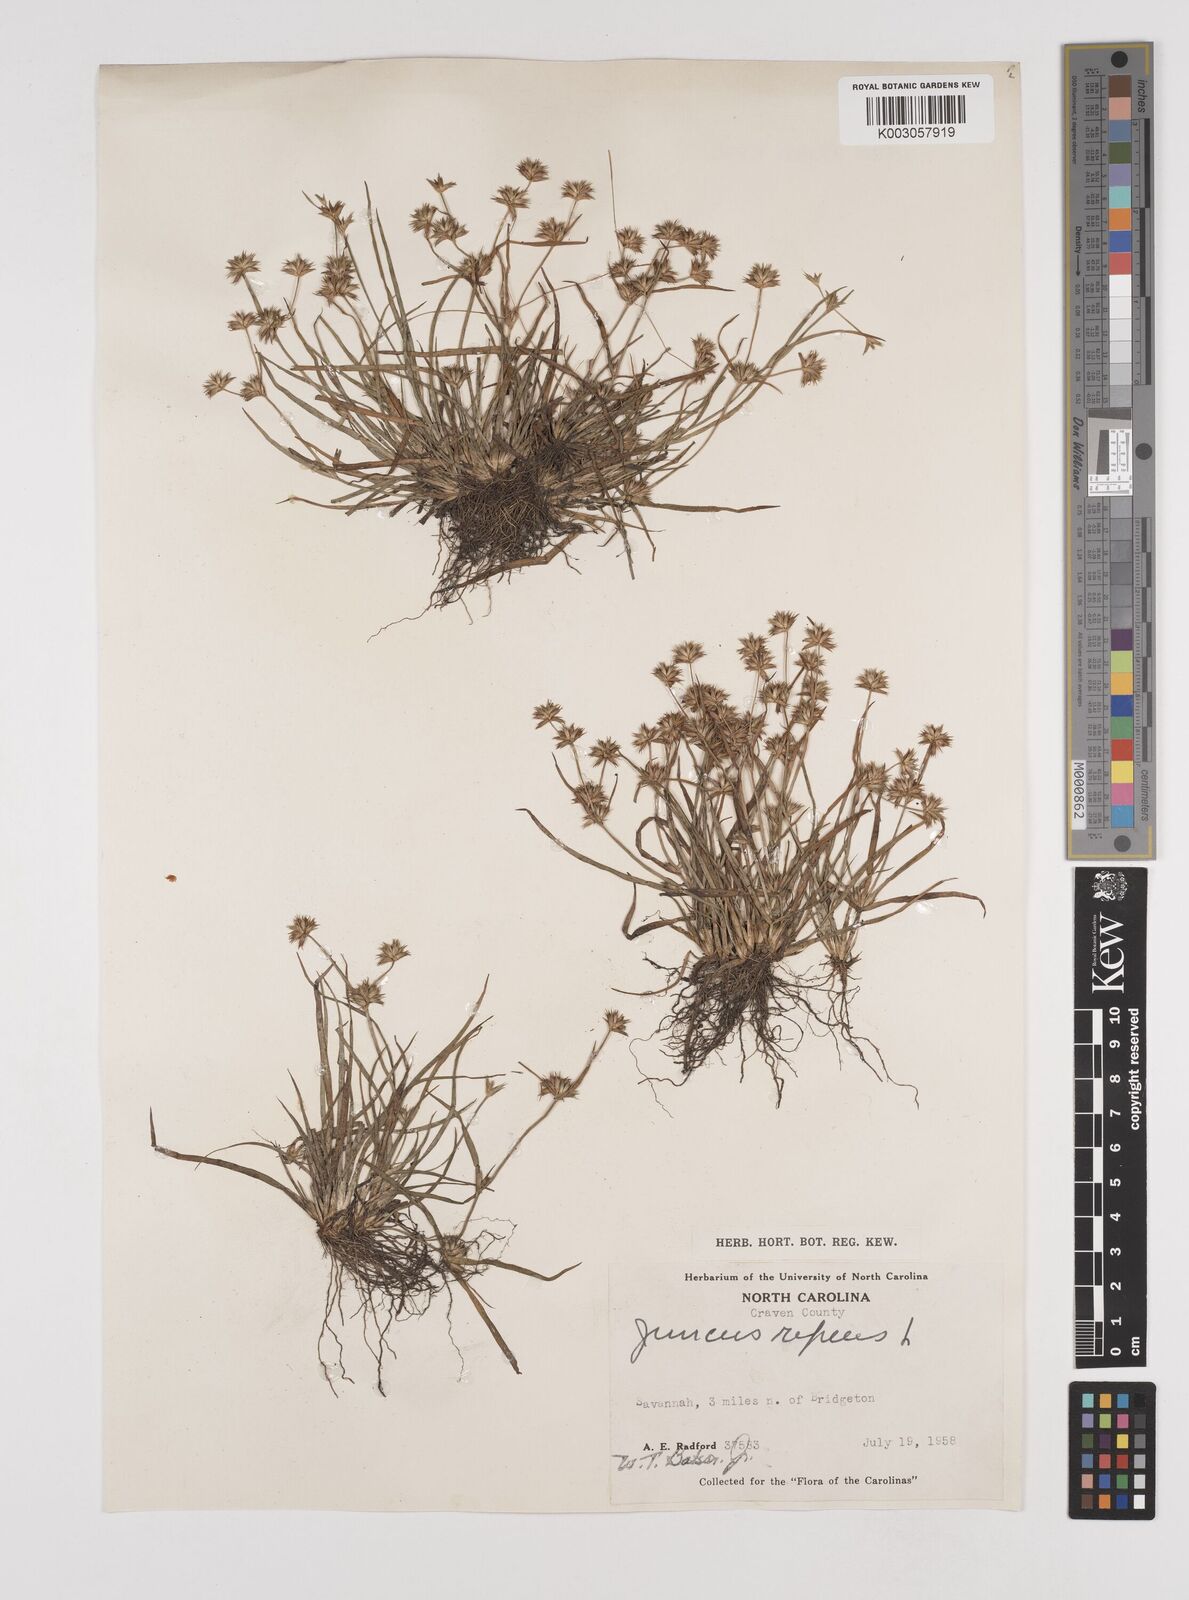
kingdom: Plantae
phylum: Tracheophyta
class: Liliopsida
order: Poales
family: Juncaceae
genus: Juncus
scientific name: Juncus repens
